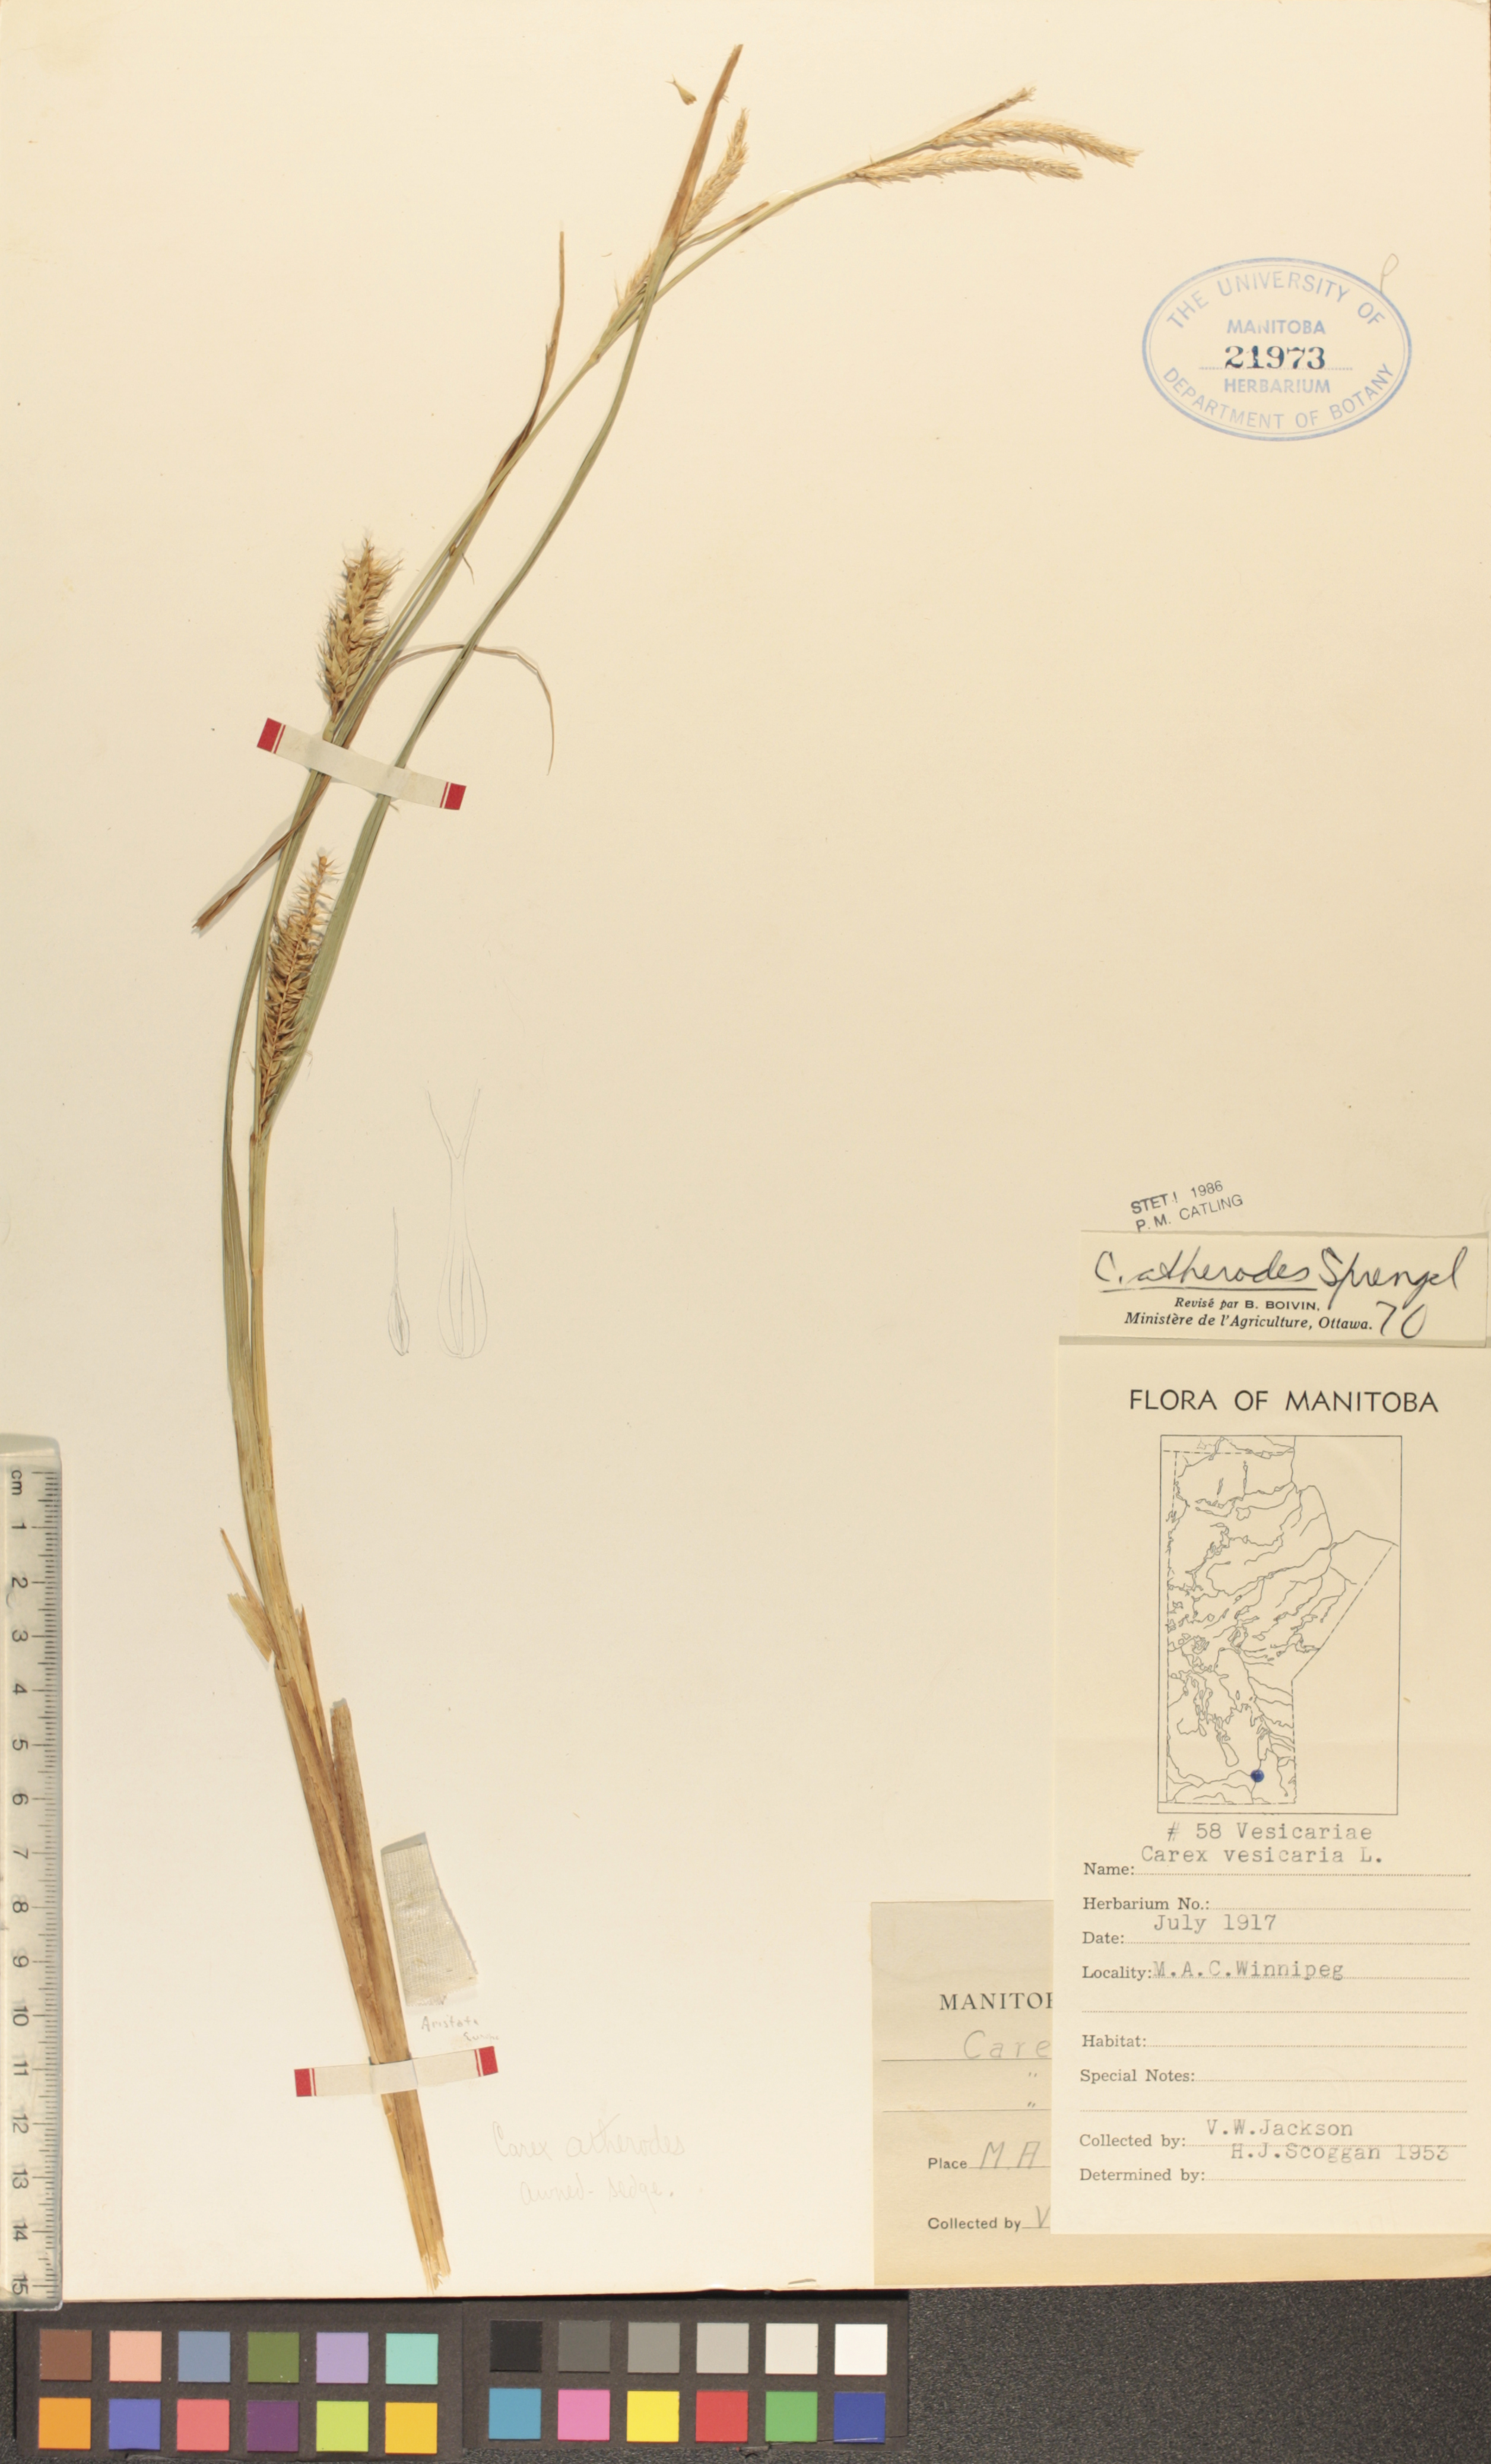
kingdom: Plantae
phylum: Tracheophyta
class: Liliopsida
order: Poales
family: Cyperaceae
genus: Carex
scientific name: Carex atherodes
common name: Wheat sedge
